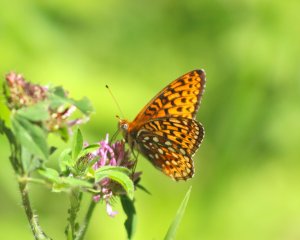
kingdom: Animalia
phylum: Arthropoda
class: Insecta
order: Lepidoptera
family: Nymphalidae
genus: Speyeria
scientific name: Speyeria atlantis
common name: Atlantis Fritillary
